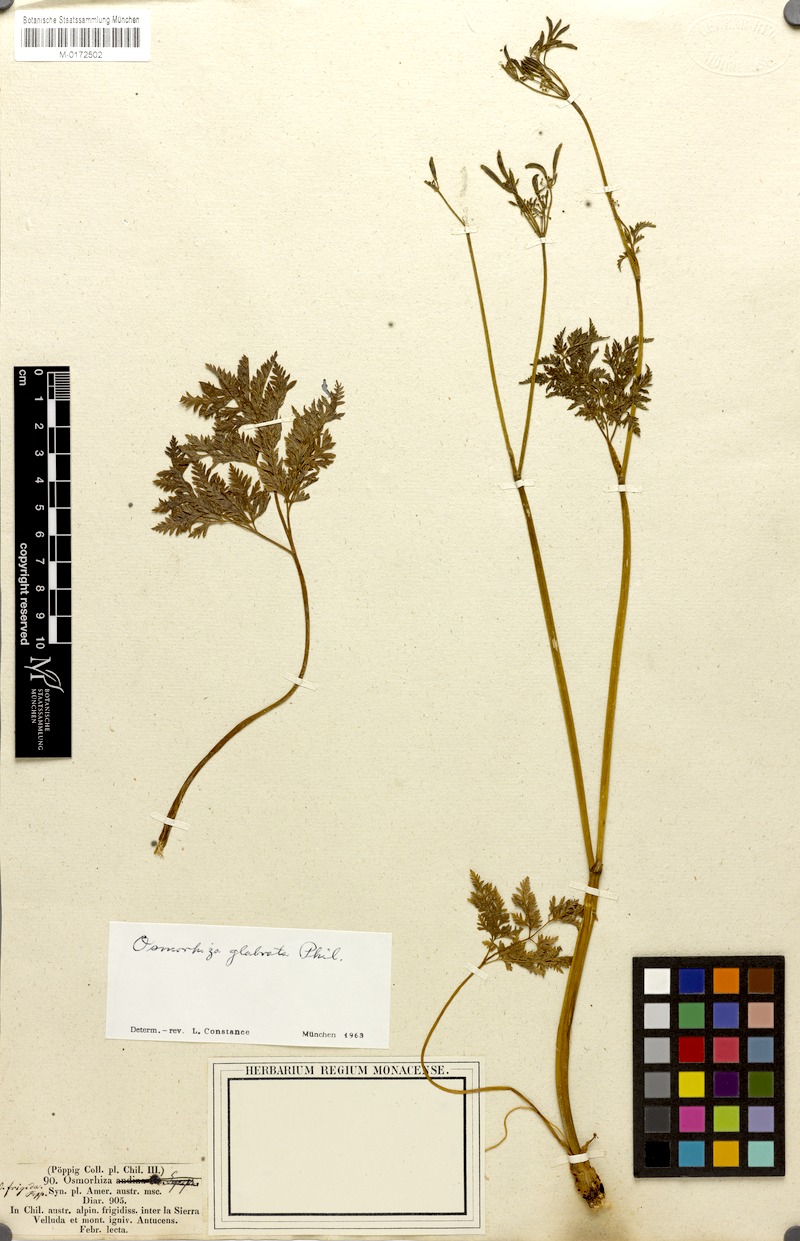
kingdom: Plantae
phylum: Tracheophyta
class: Magnoliopsida
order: Apiales
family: Apiaceae
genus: Osmorhiza
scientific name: Osmorhiza glabrata
